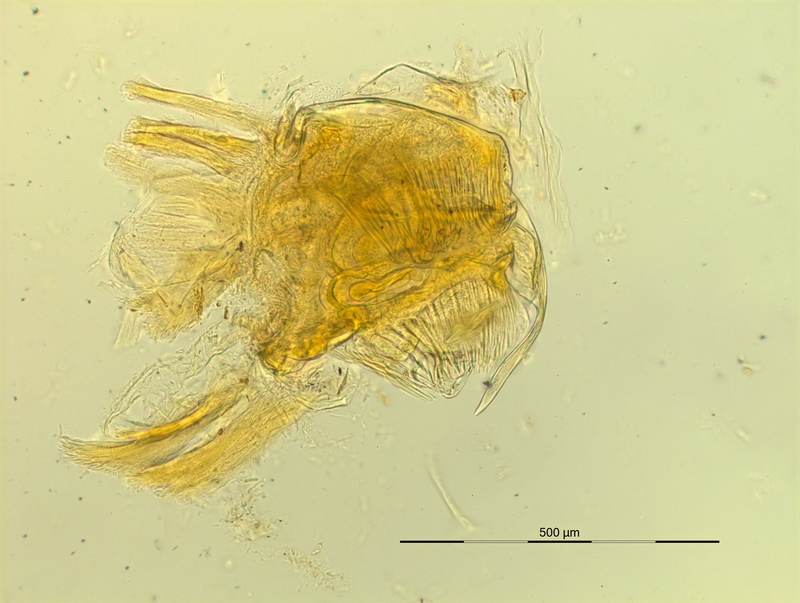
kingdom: Animalia
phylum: Arthropoda
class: Diplopoda
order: Chordeumatida
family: Craspedosomatidae
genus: Pyrgocyphosoma
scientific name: Pyrgocyphosoma brembanum
